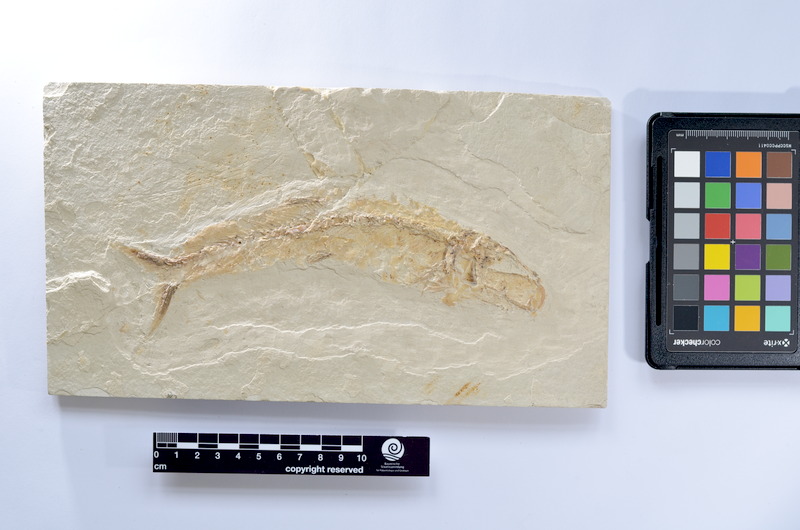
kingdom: Animalia
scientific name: Animalia
